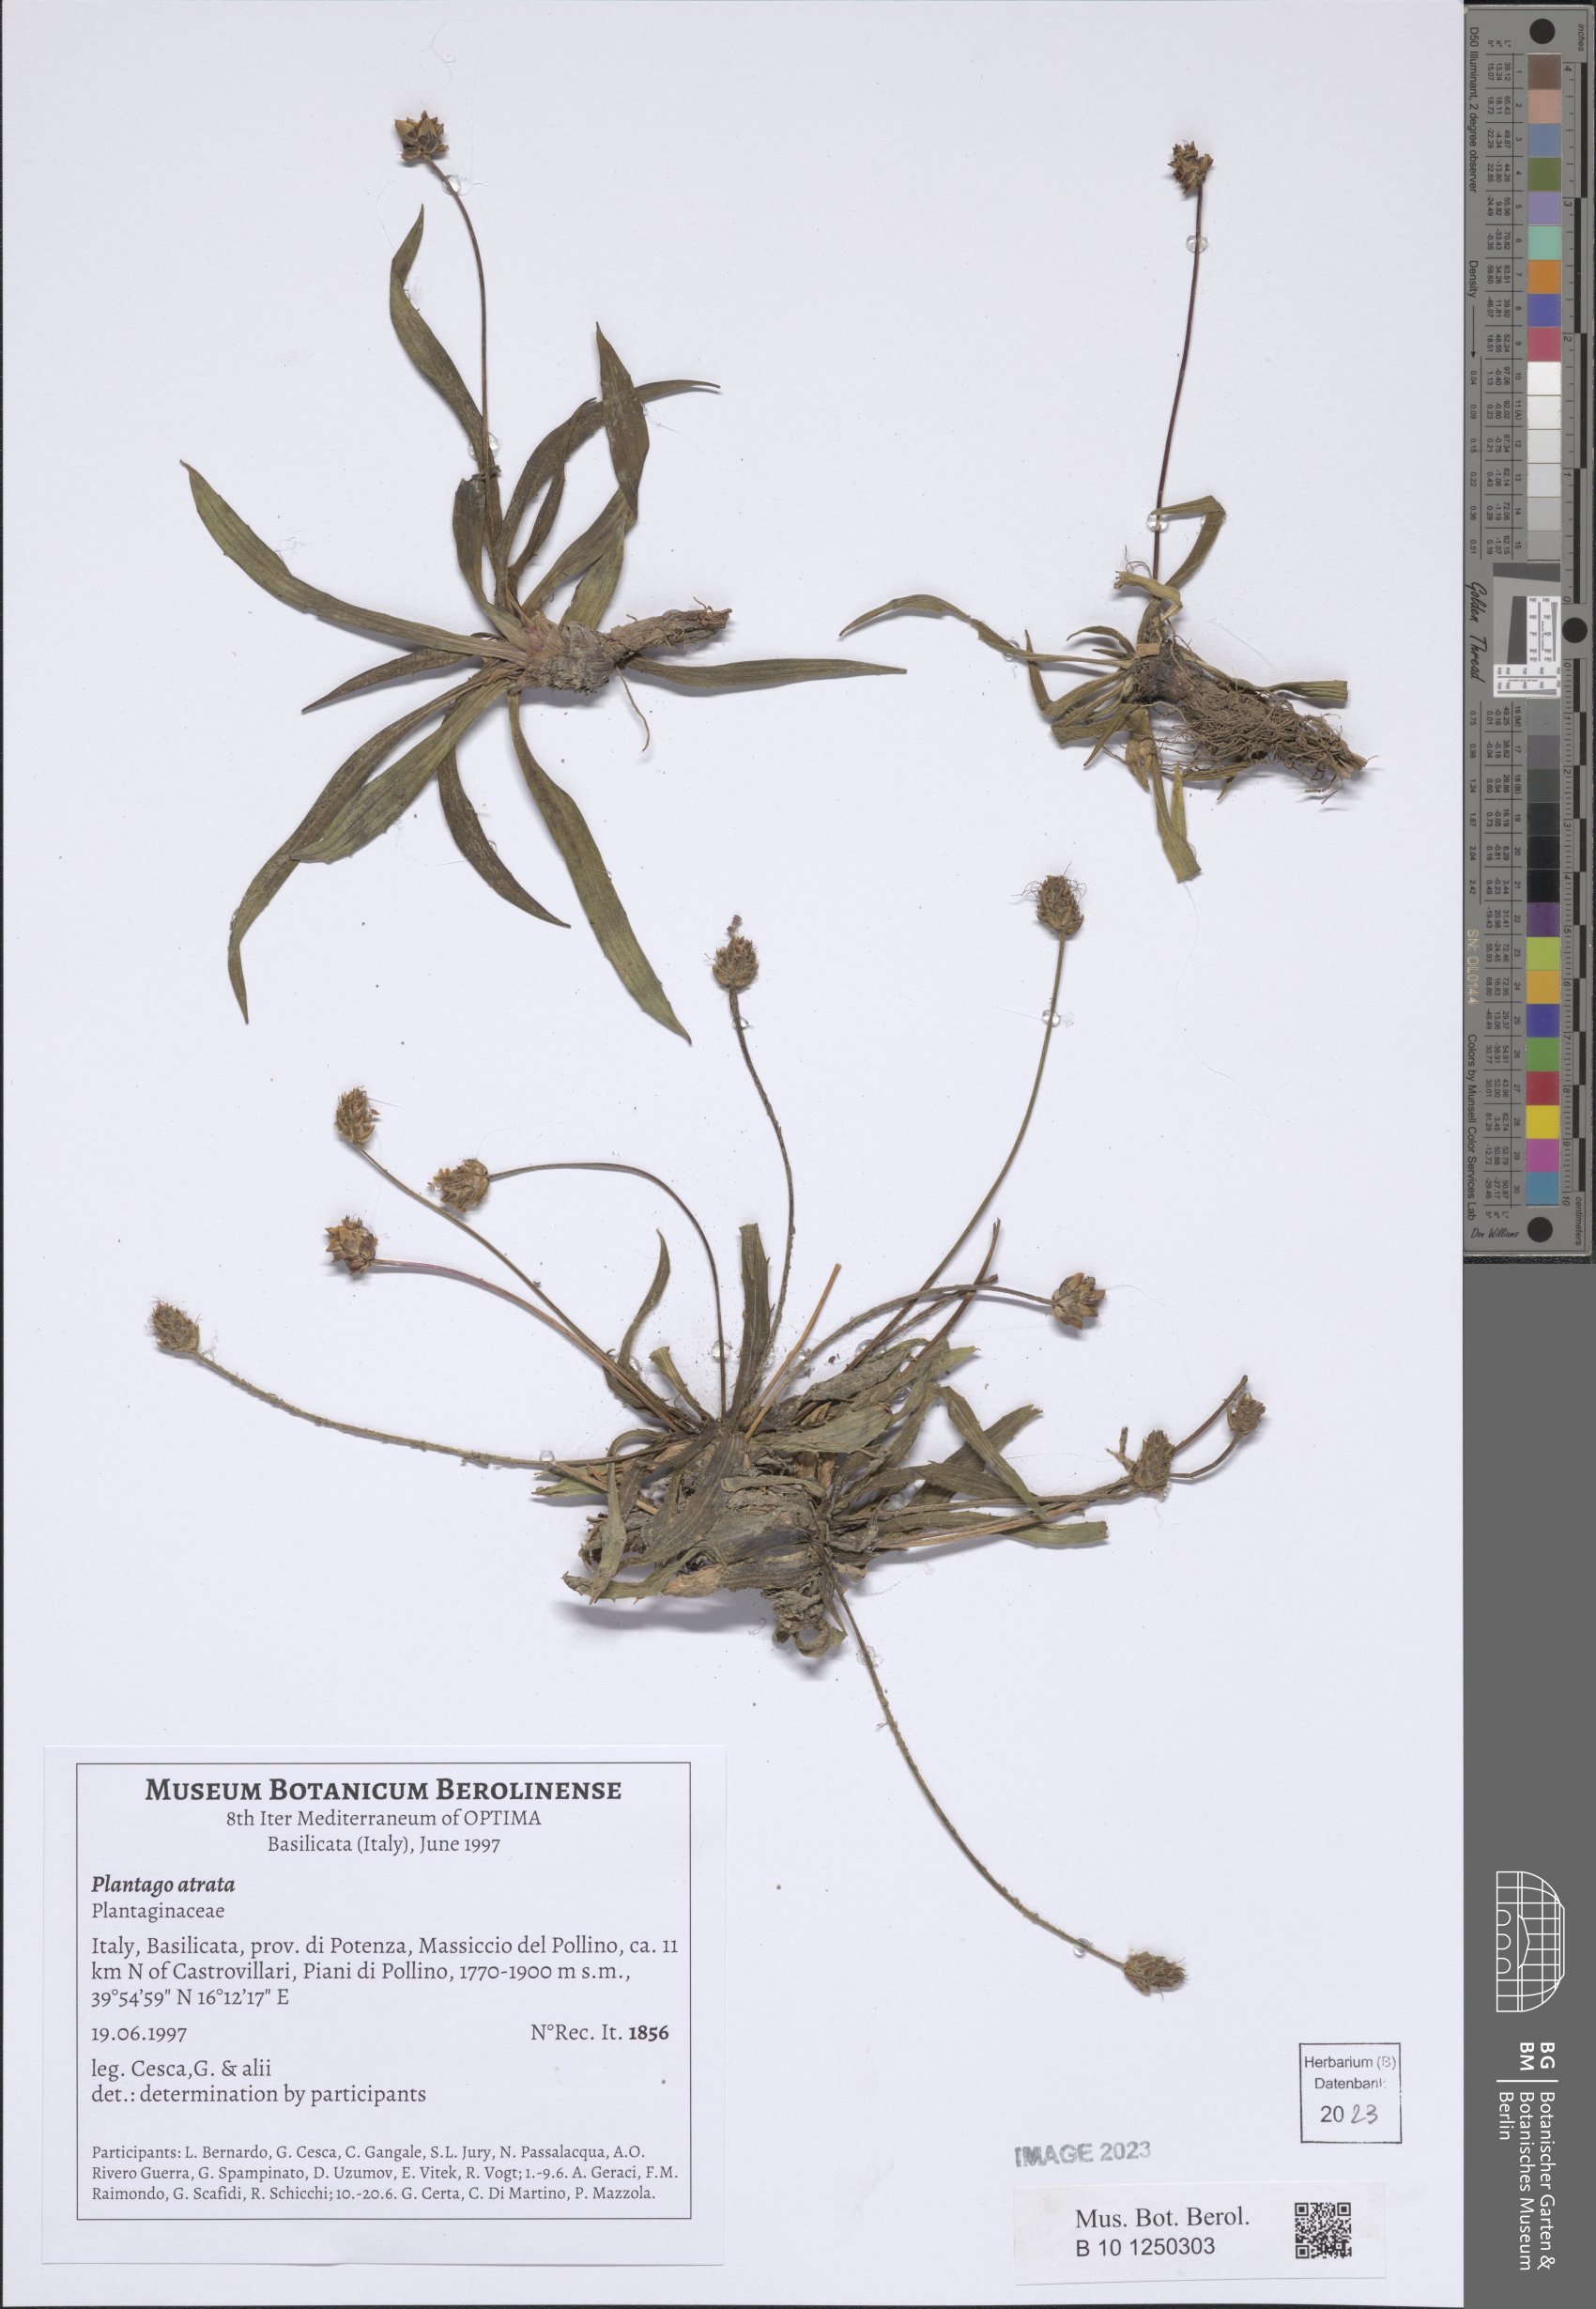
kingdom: Plantae
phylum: Tracheophyta
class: Magnoliopsida
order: Lamiales
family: Plantaginaceae
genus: Plantago
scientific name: Plantago atrata
